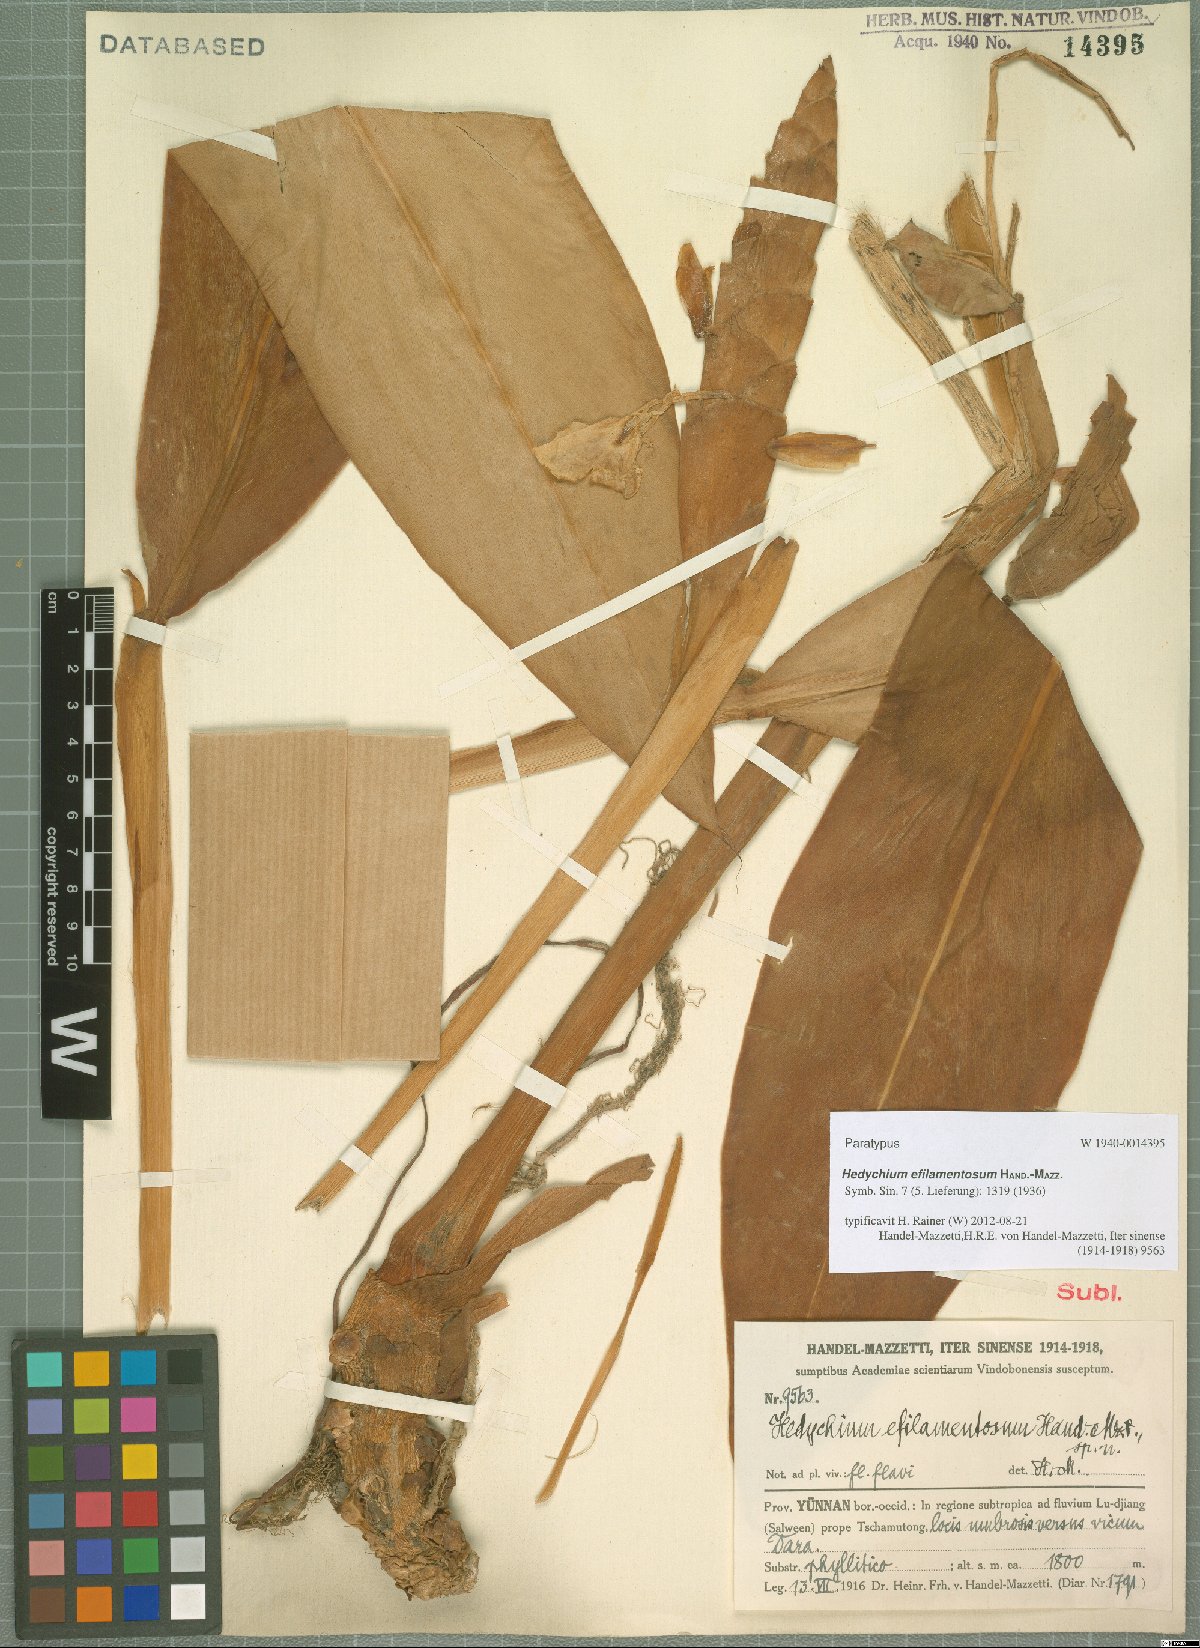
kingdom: Plantae
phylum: Tracheophyta
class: Liliopsida
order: Zingiberales
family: Zingiberaceae
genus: Hedychium
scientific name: Hedychium efilamentosum
